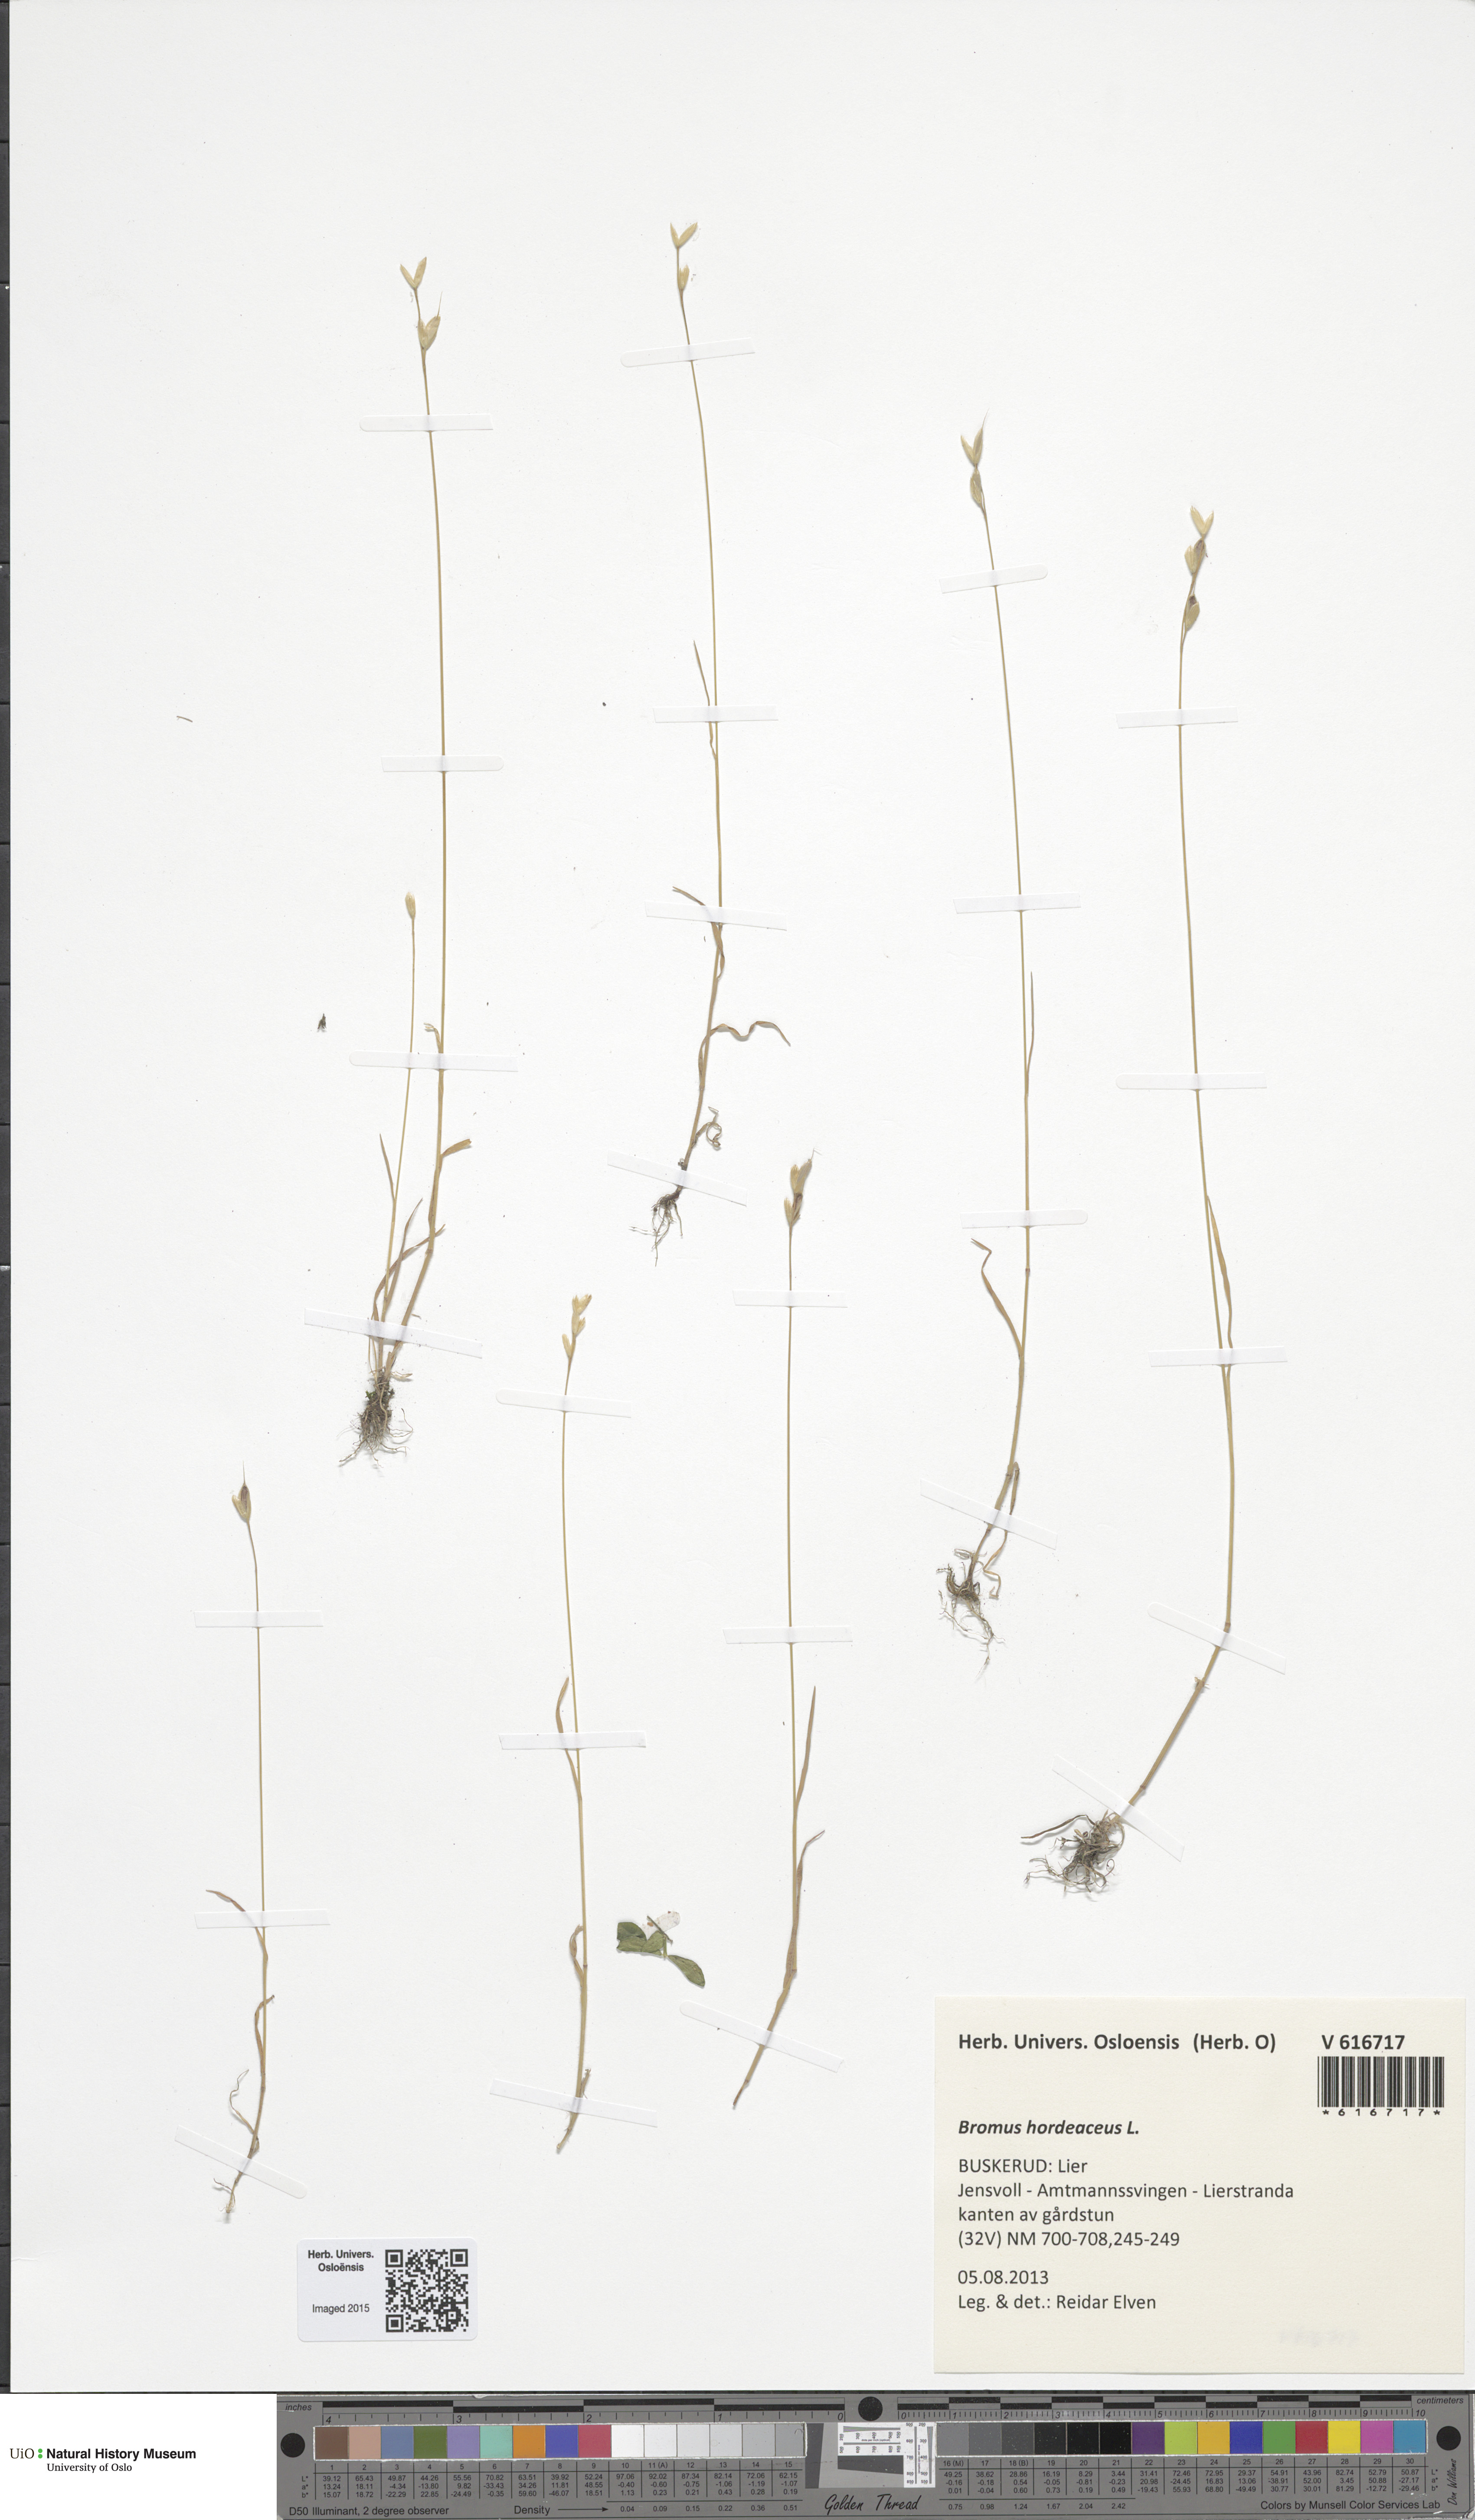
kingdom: Plantae
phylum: Tracheophyta
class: Liliopsida
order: Poales
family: Poaceae
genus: Bromus
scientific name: Bromus hordeaceus
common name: Soft brome
